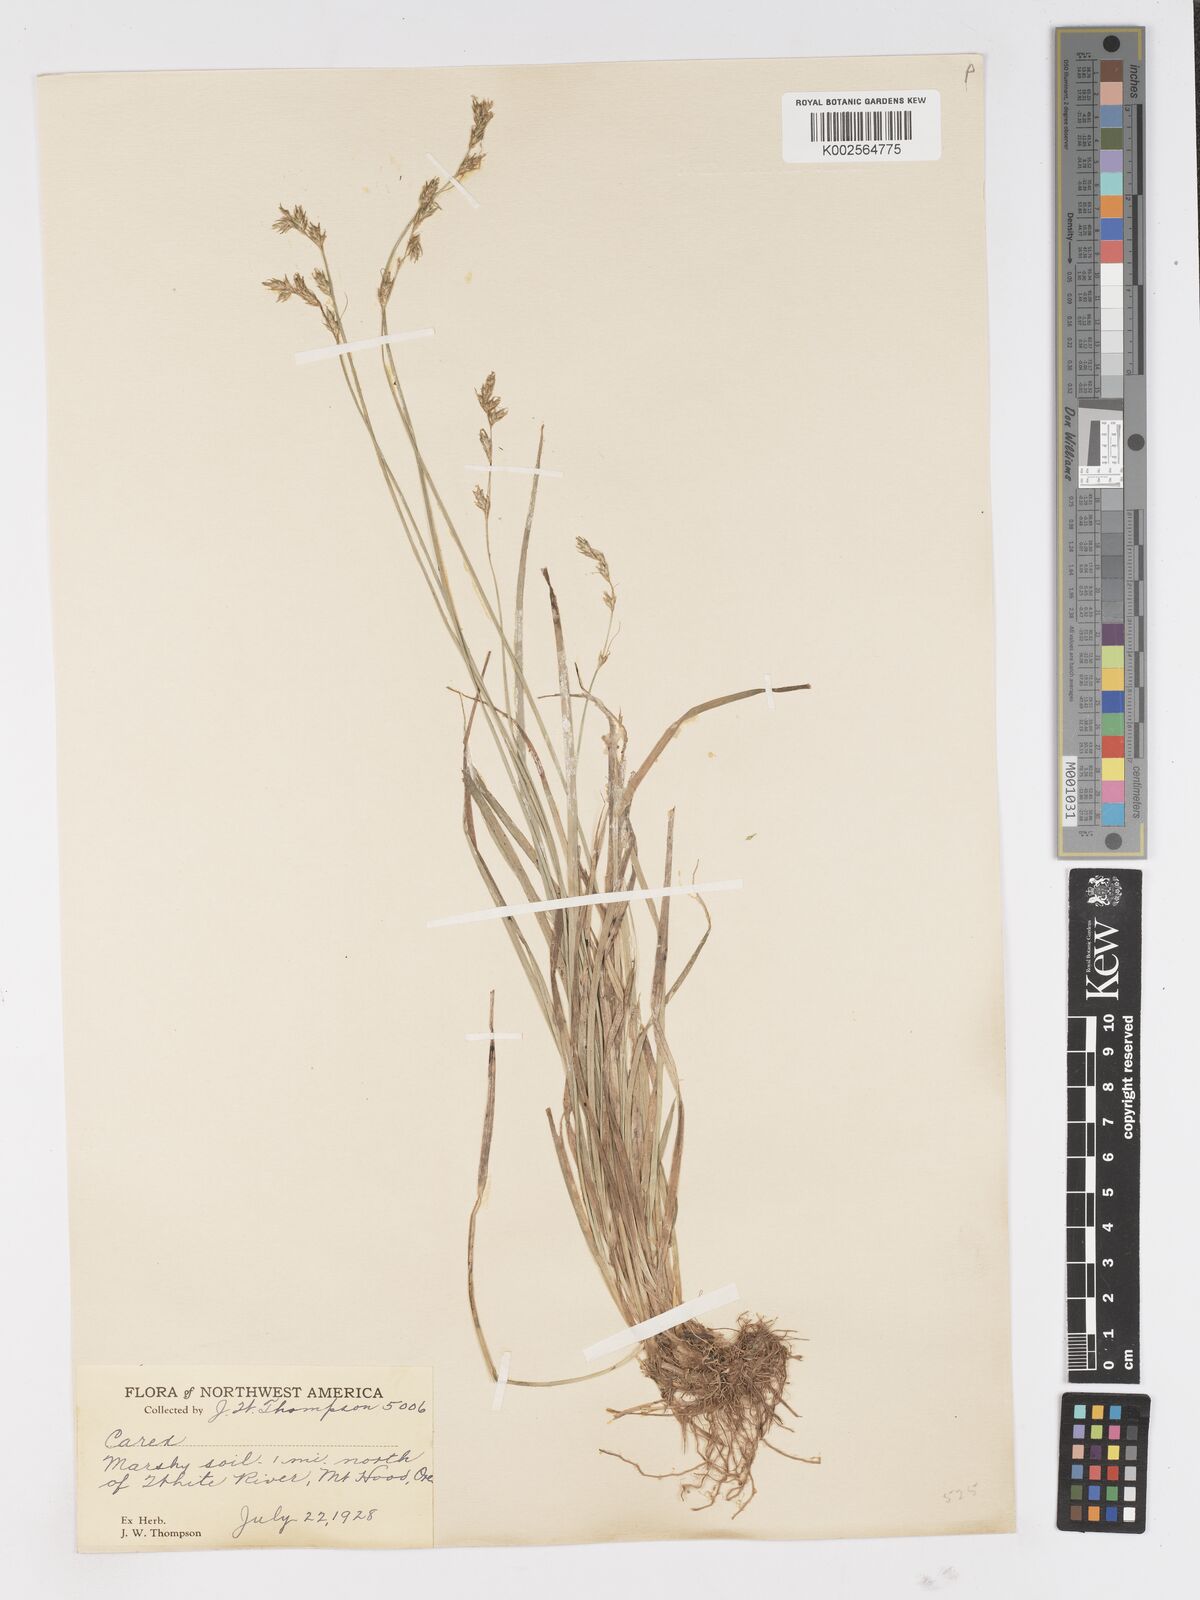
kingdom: Plantae
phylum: Tracheophyta
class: Liliopsida
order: Poales
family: Cyperaceae
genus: Carex
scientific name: Carex
